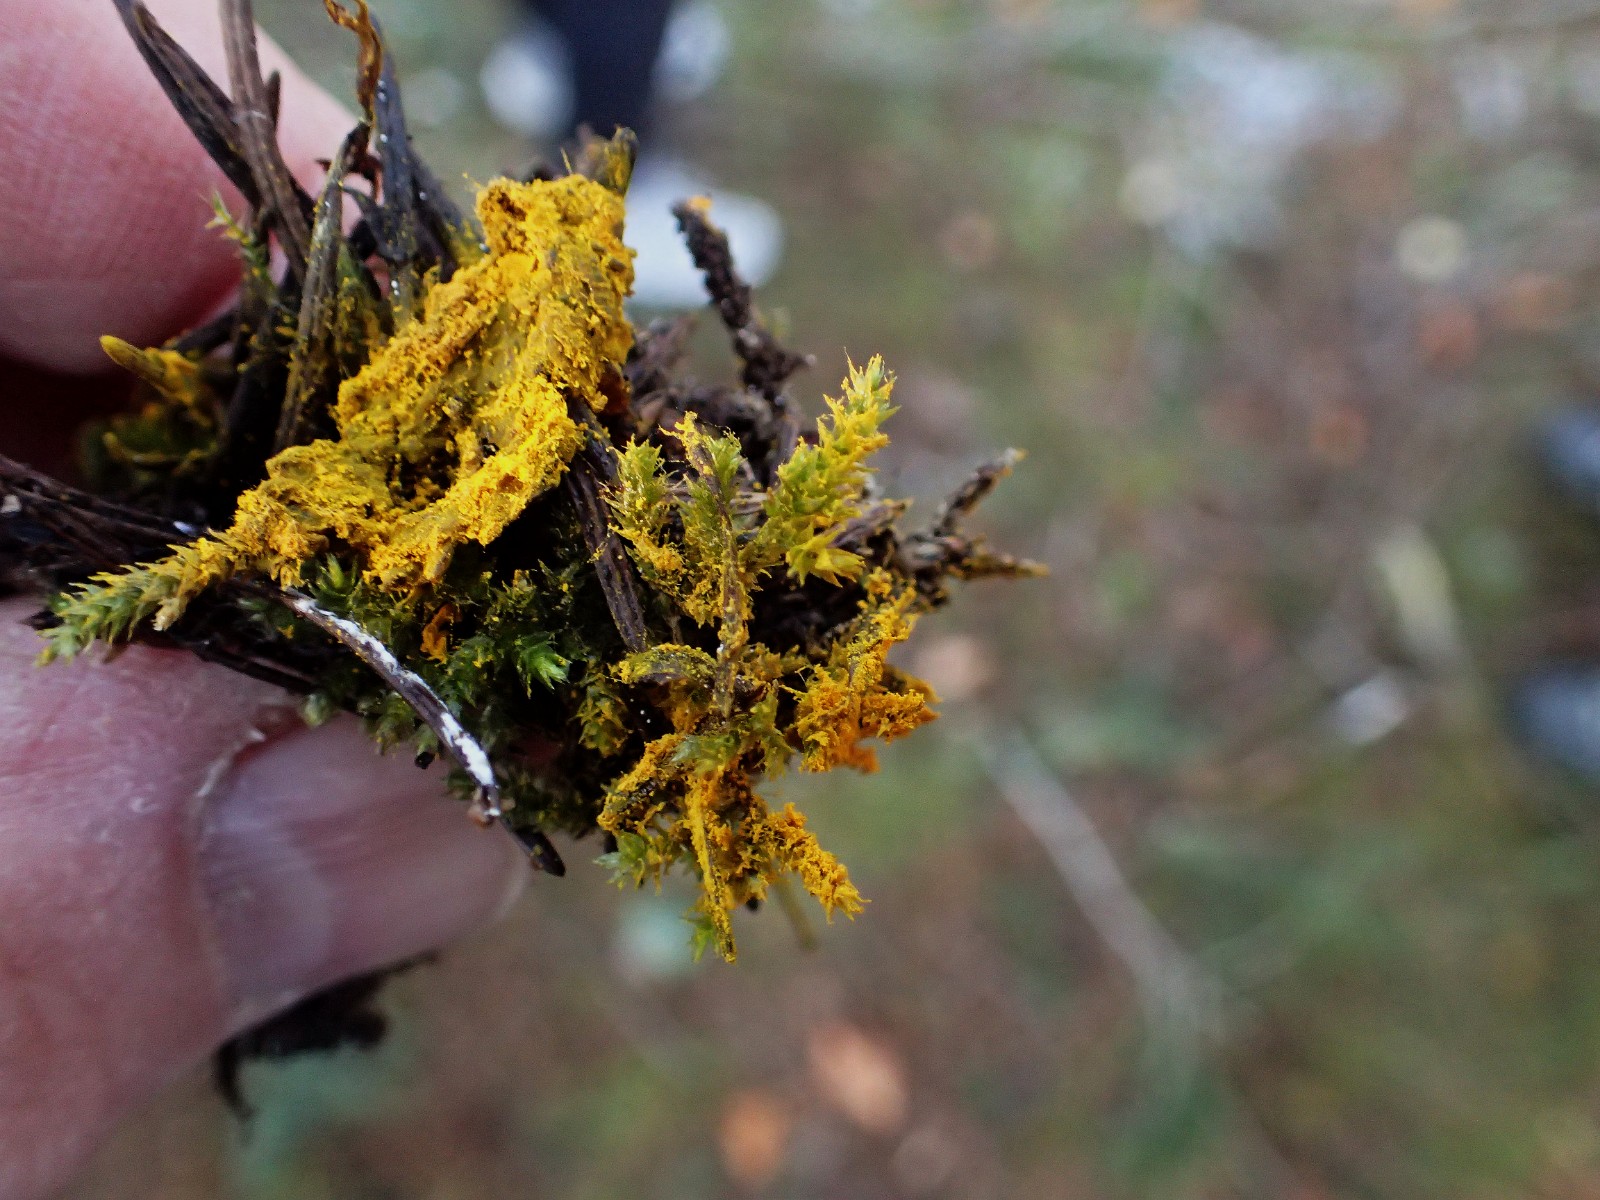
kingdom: Fungi
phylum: Ascomycota
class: Sordariomycetes
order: Hypocreales
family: Hypocreaceae
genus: Hypomyces
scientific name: Hypomyces
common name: snylteskorpe
